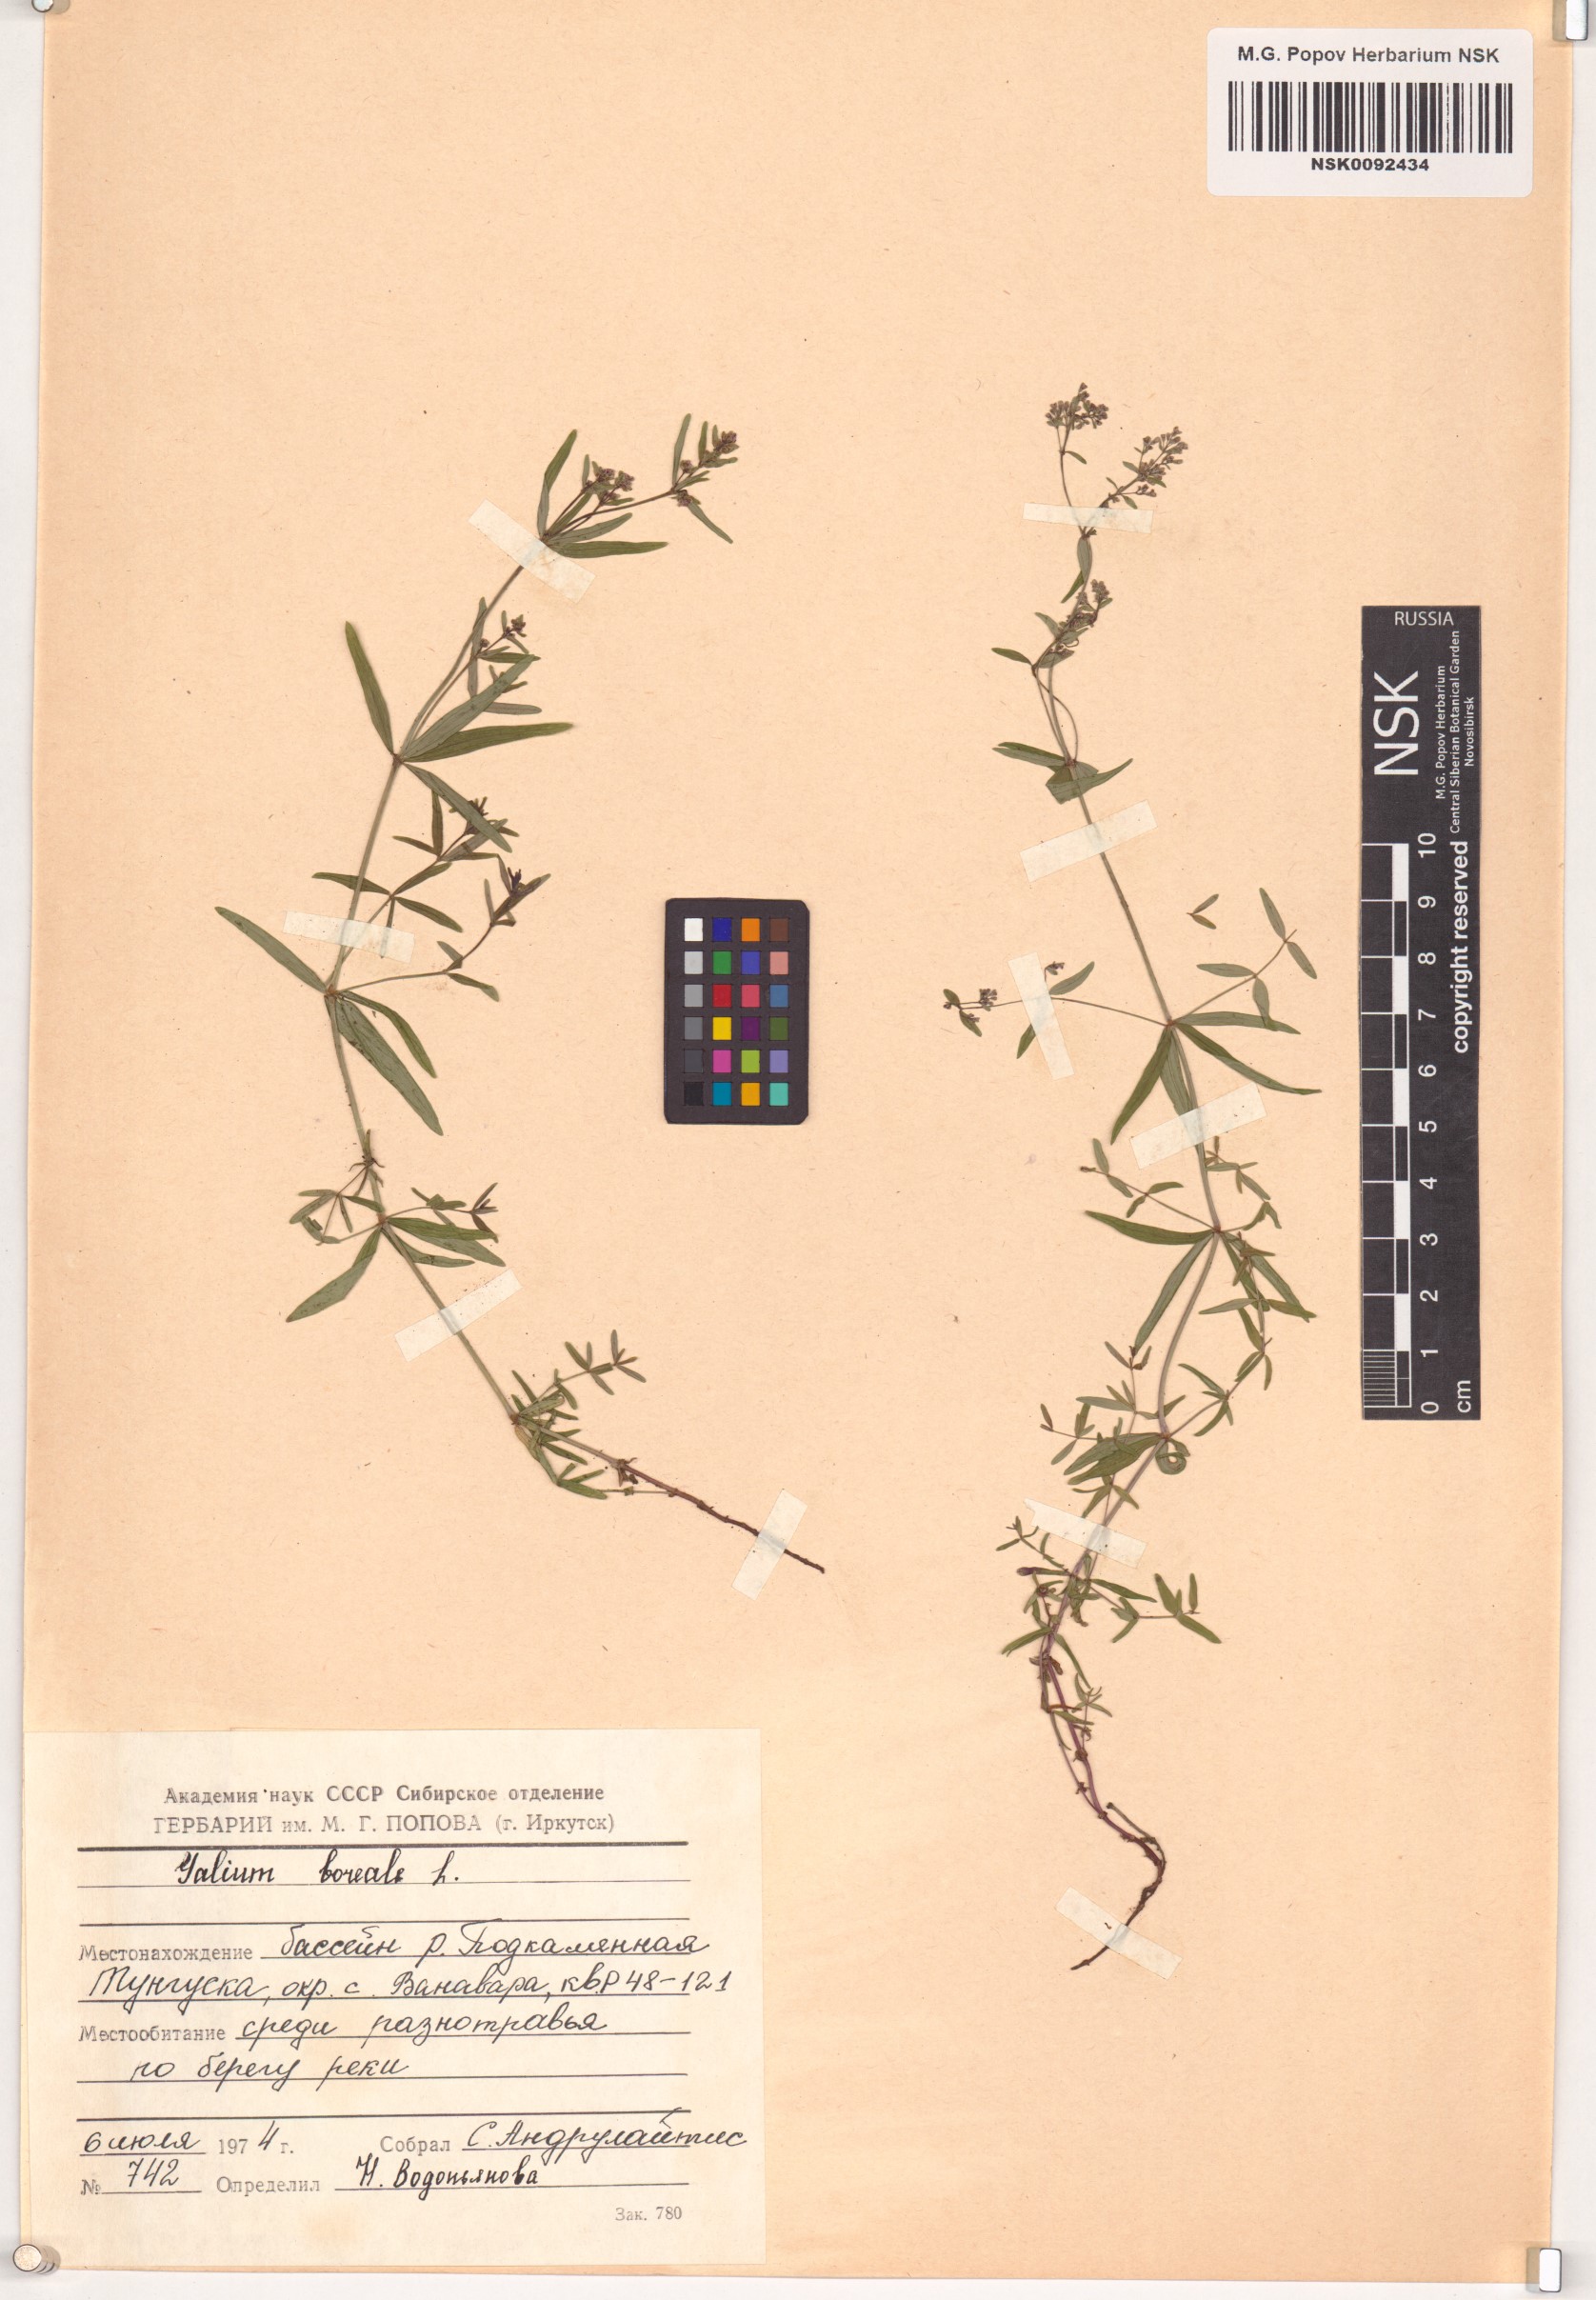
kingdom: Plantae
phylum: Tracheophyta
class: Magnoliopsida
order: Gentianales
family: Rubiaceae
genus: Galium
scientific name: Galium boreale
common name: Northern bedstraw
